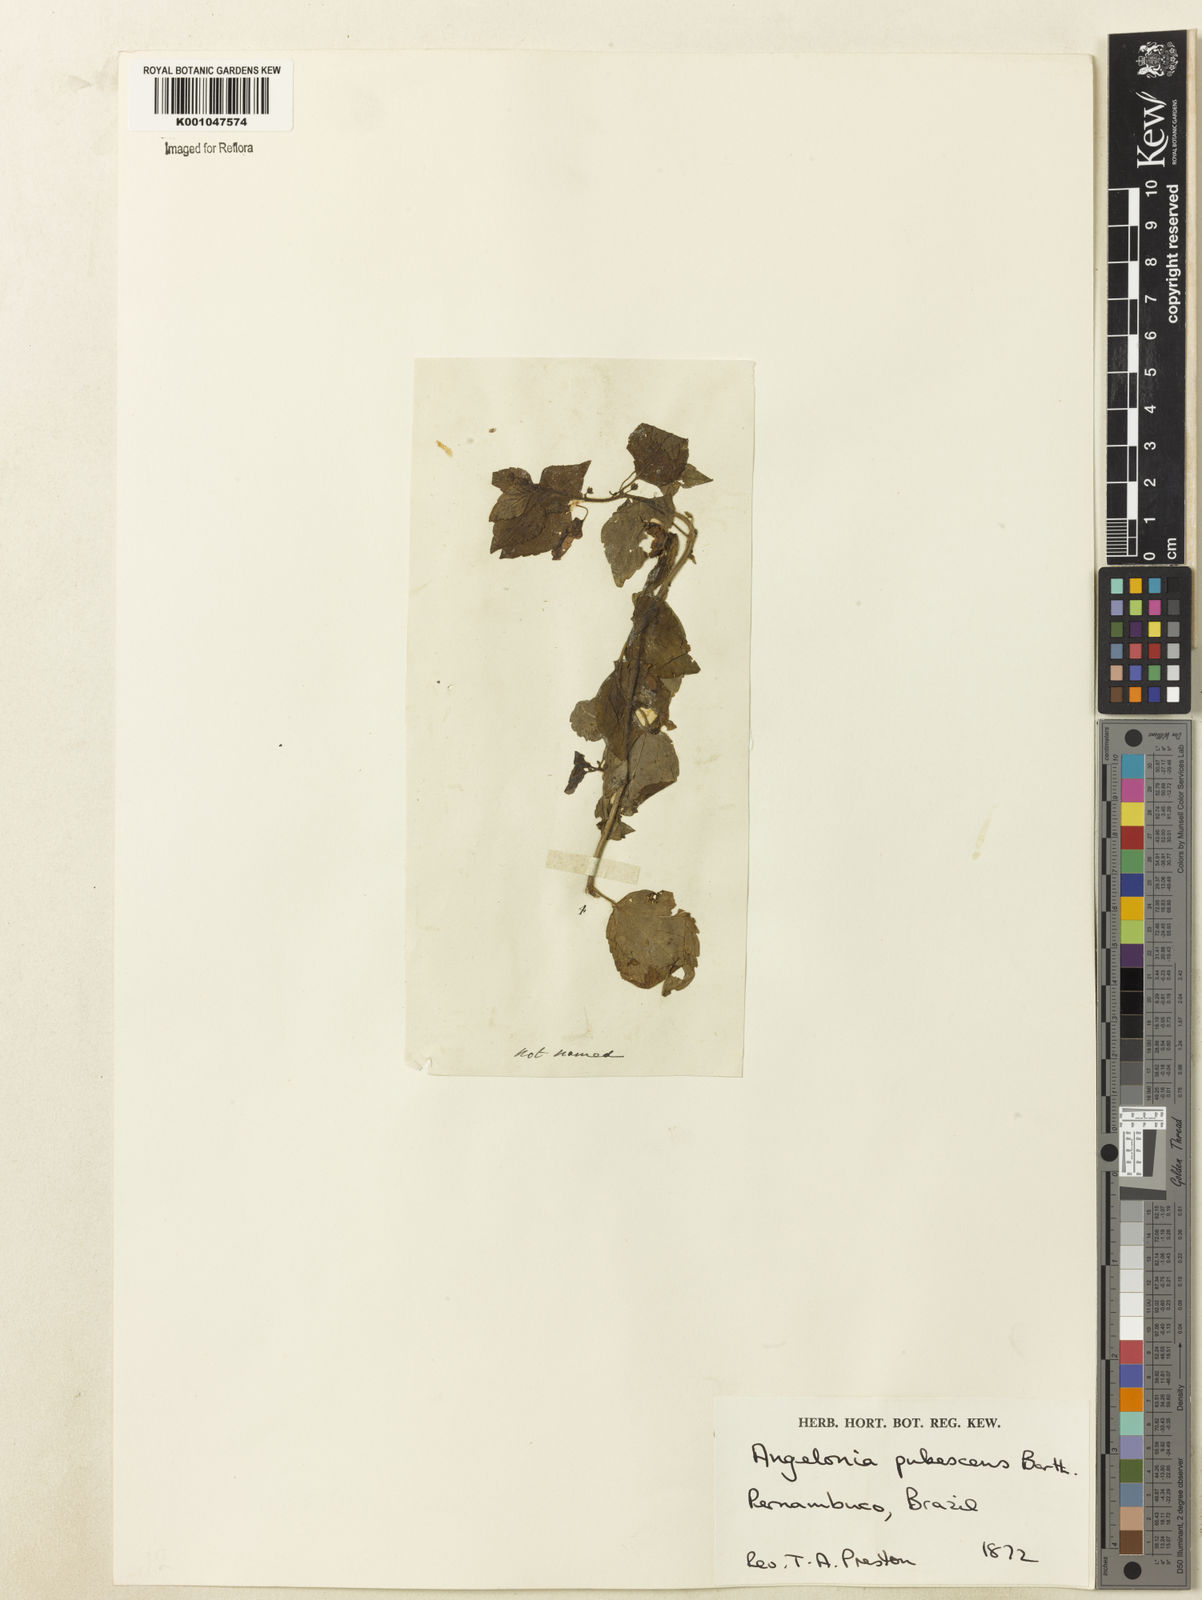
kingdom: Plantae
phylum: Tracheophyta
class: Magnoliopsida
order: Lamiales
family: Plantaginaceae
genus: Angelonia
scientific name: Angelonia pubescens
